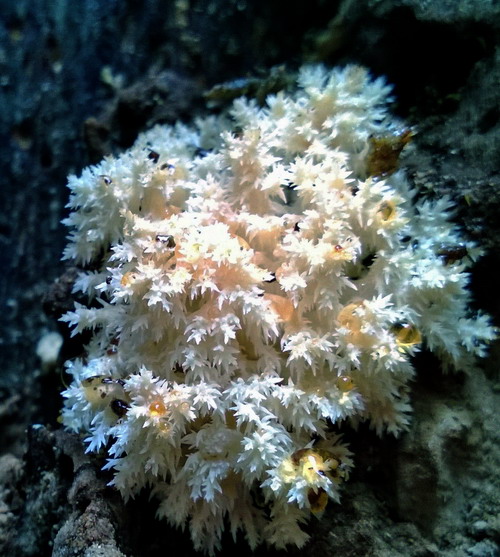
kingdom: Fungi
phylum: Basidiomycota
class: Agaricomycetes
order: Russulales
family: Hericiaceae
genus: Hericium
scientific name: Hericium coralloides
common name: koralpigsvamp
